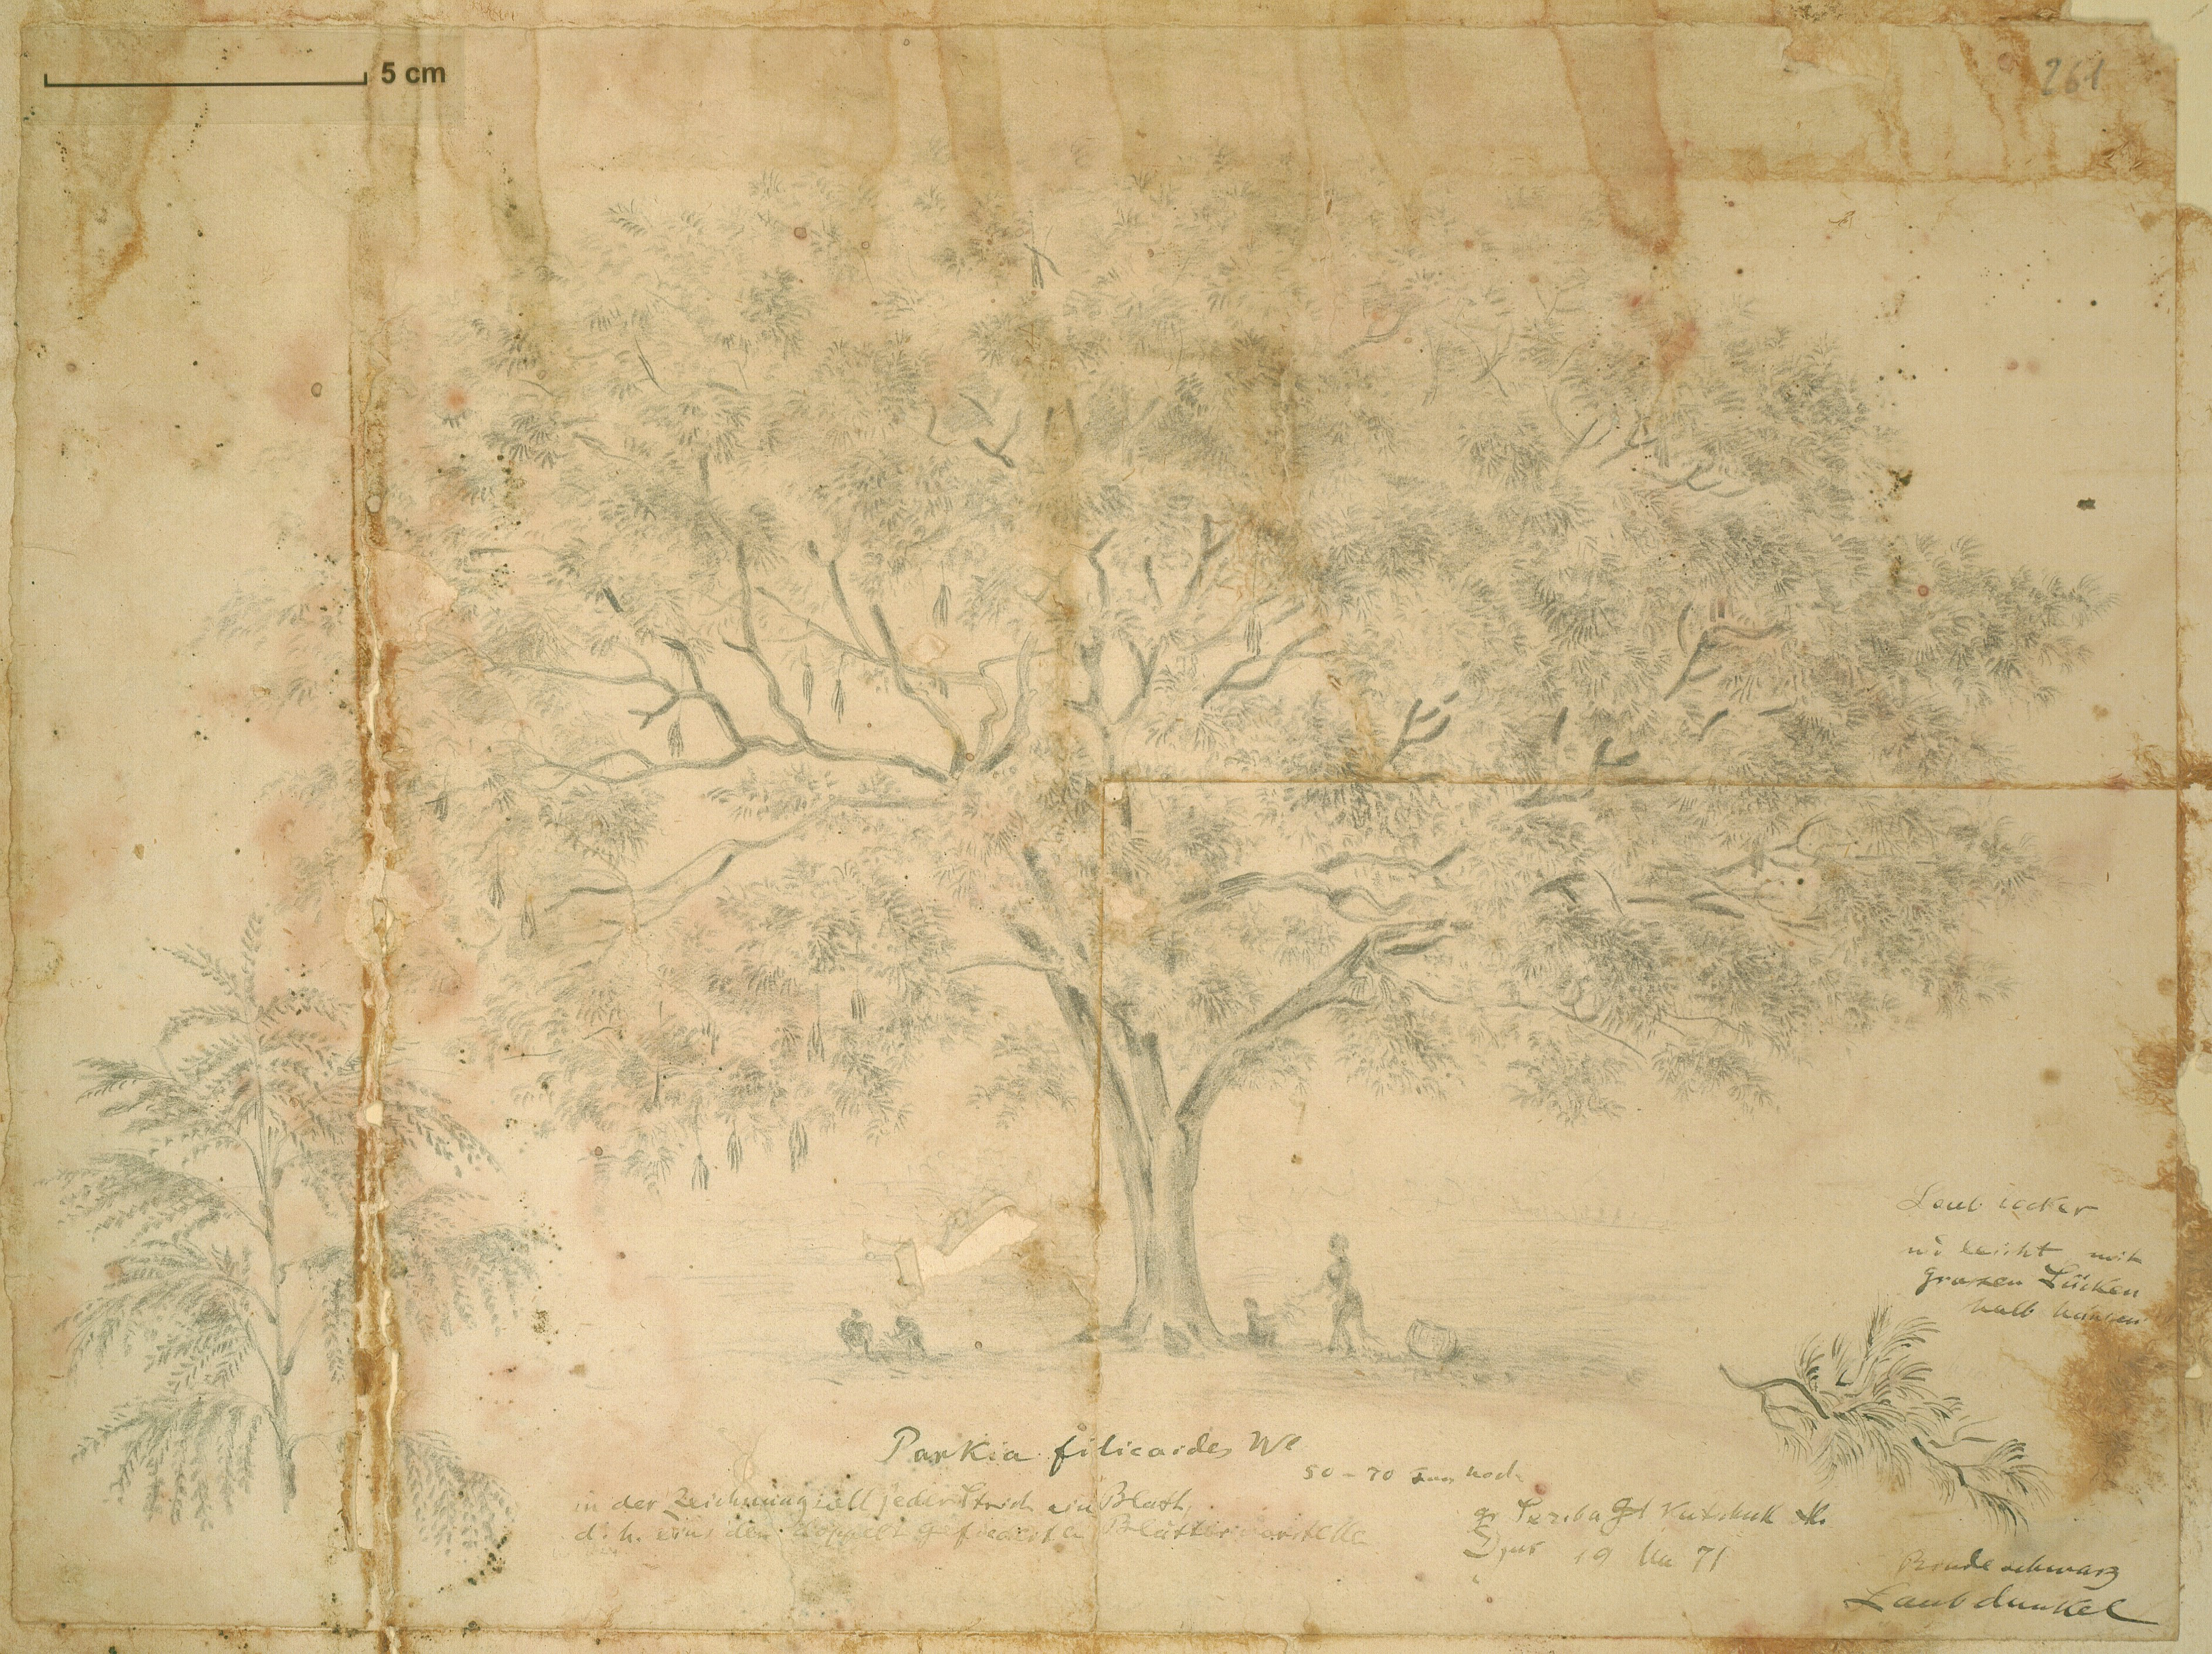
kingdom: Plantae
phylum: Tracheophyta
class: Magnoliopsida
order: Fabales
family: Fabaceae
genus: Parkia
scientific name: Parkia filicoidea
